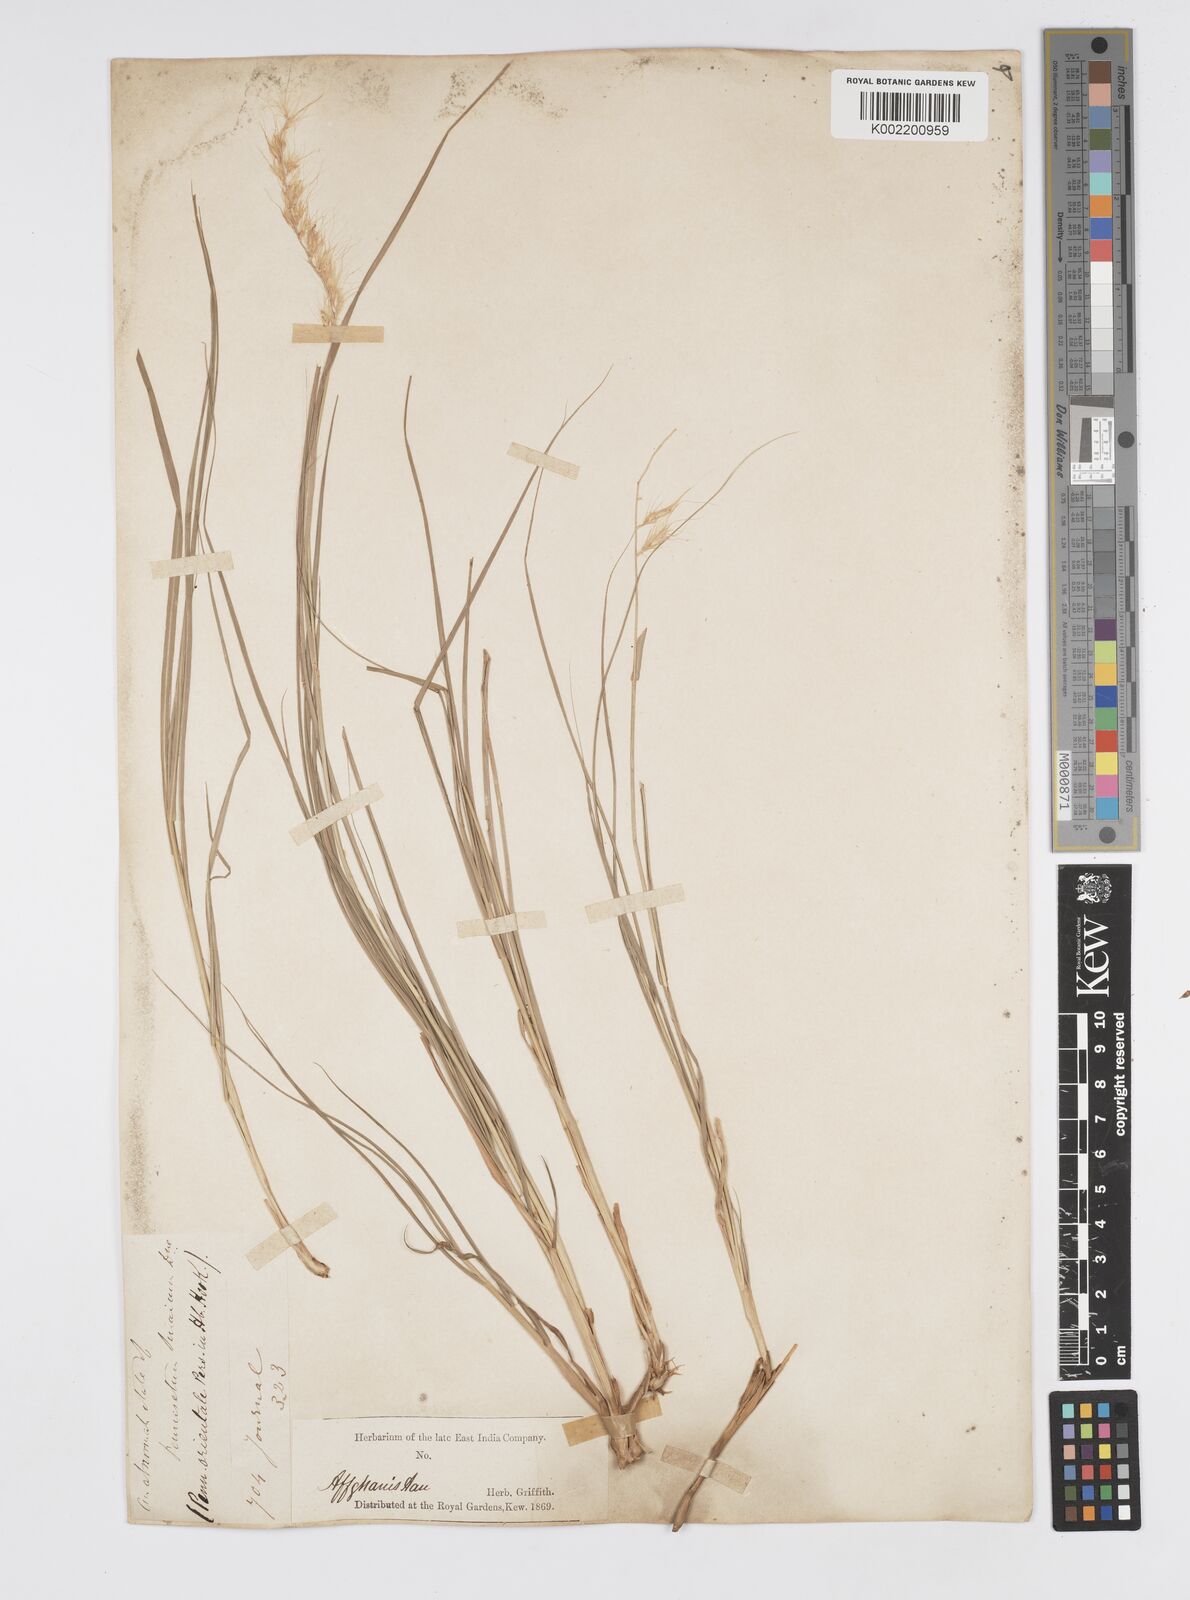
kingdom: Plantae
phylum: Tracheophyta
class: Liliopsida
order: Poales
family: Poaceae
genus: Cenchrus
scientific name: Cenchrus orientalis
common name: Oriental fountain grass
